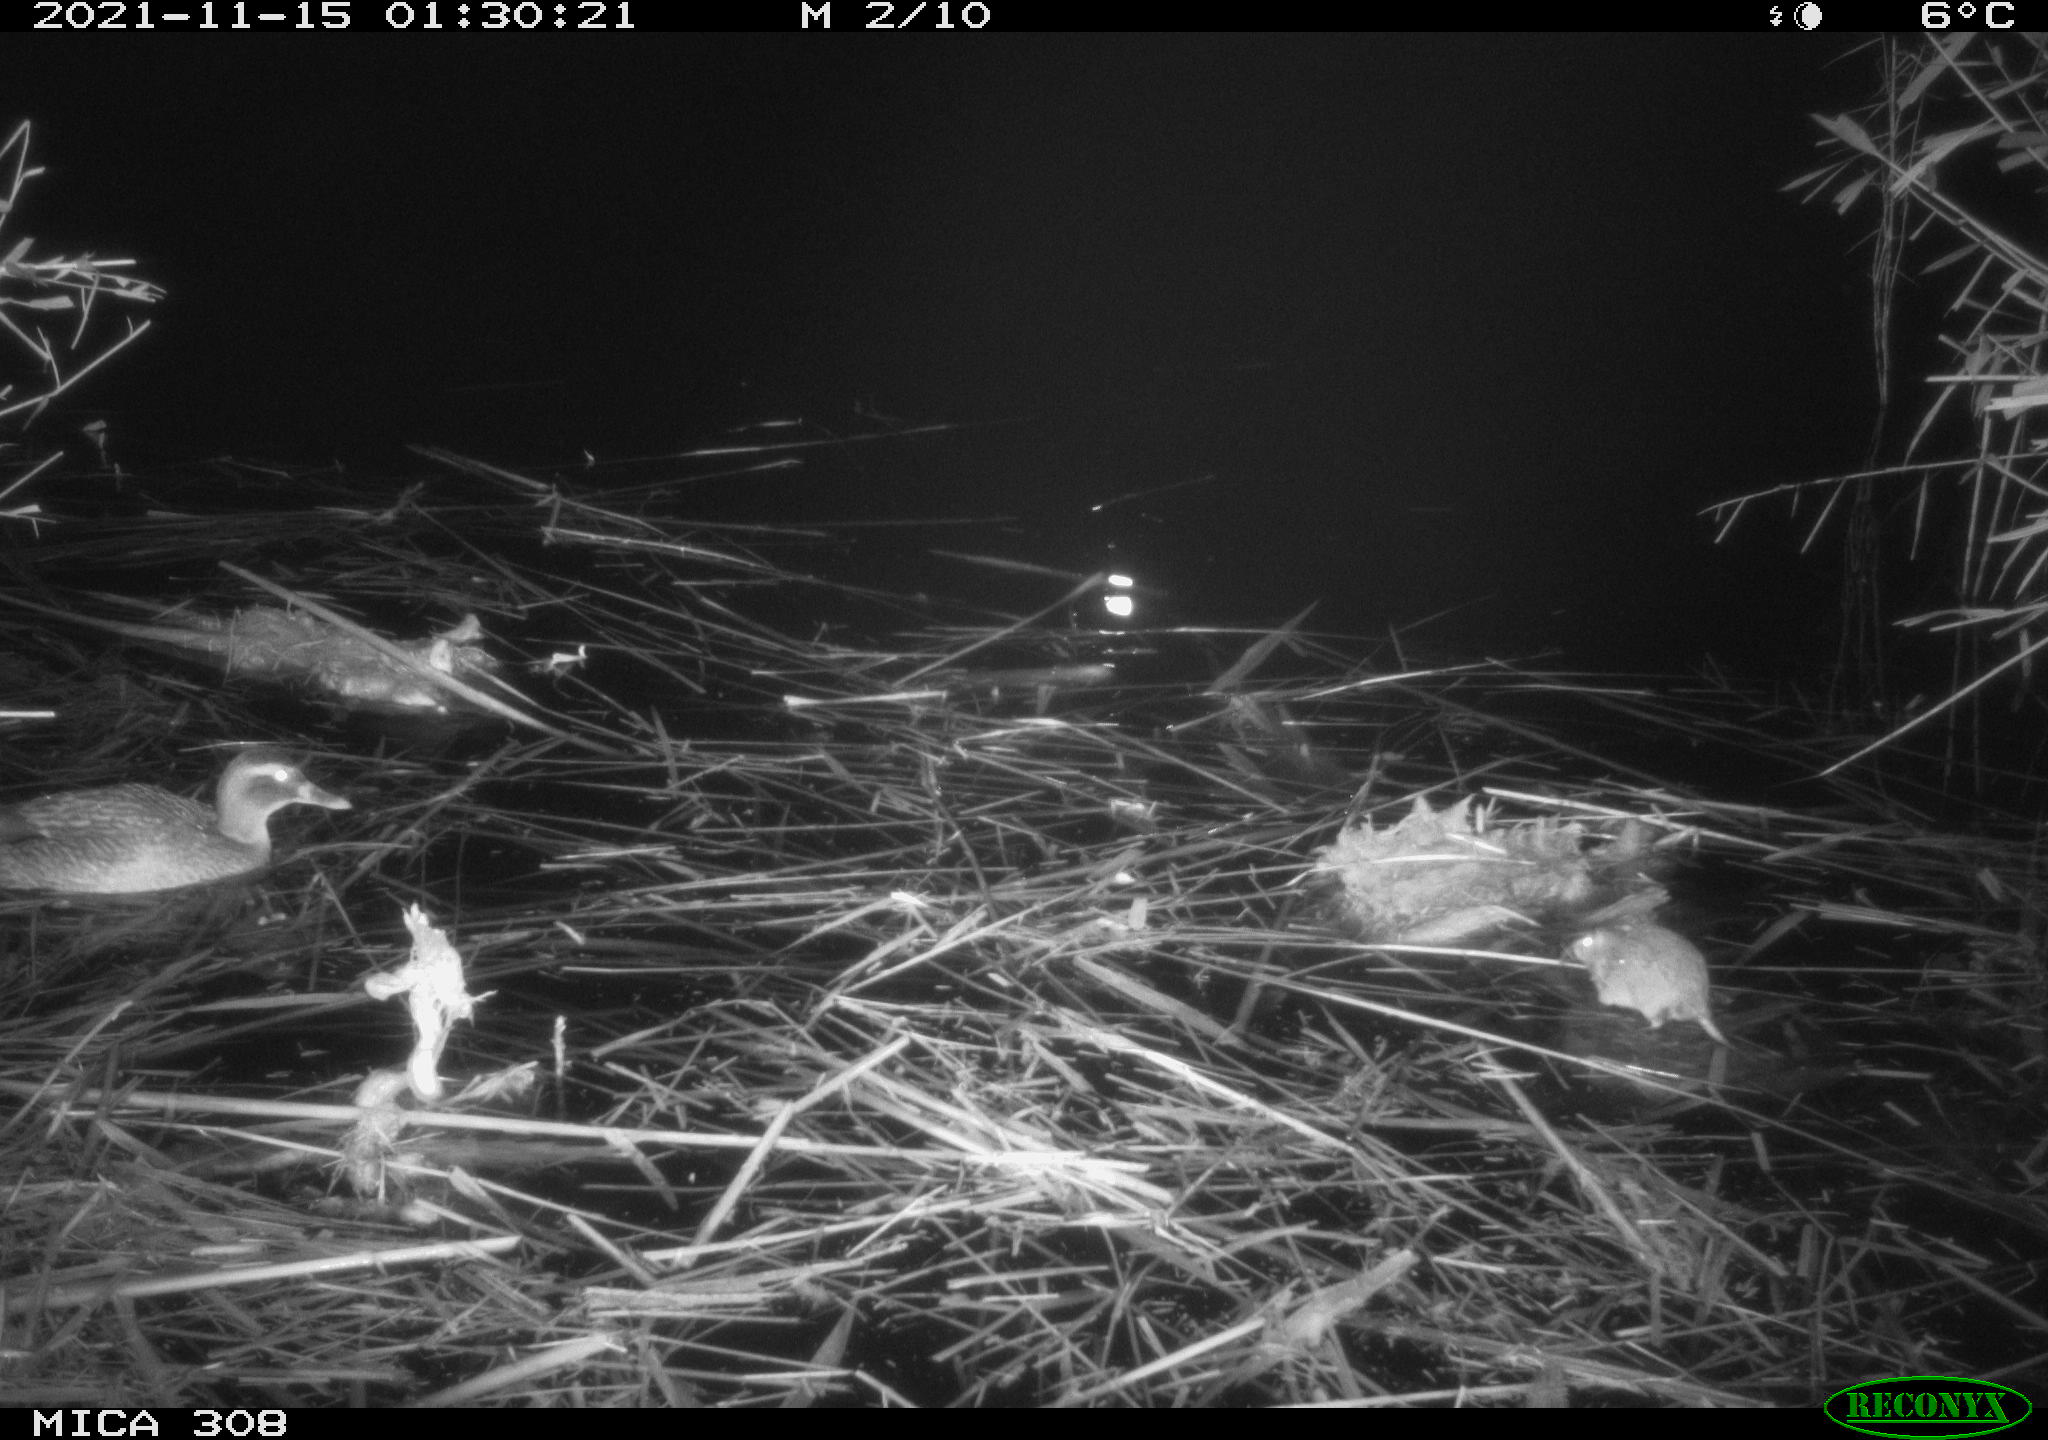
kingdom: Animalia
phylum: Chordata
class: Aves
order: Anseriformes
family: Anatidae
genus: Anas
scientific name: Anas platyrhynchos
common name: Mallard
